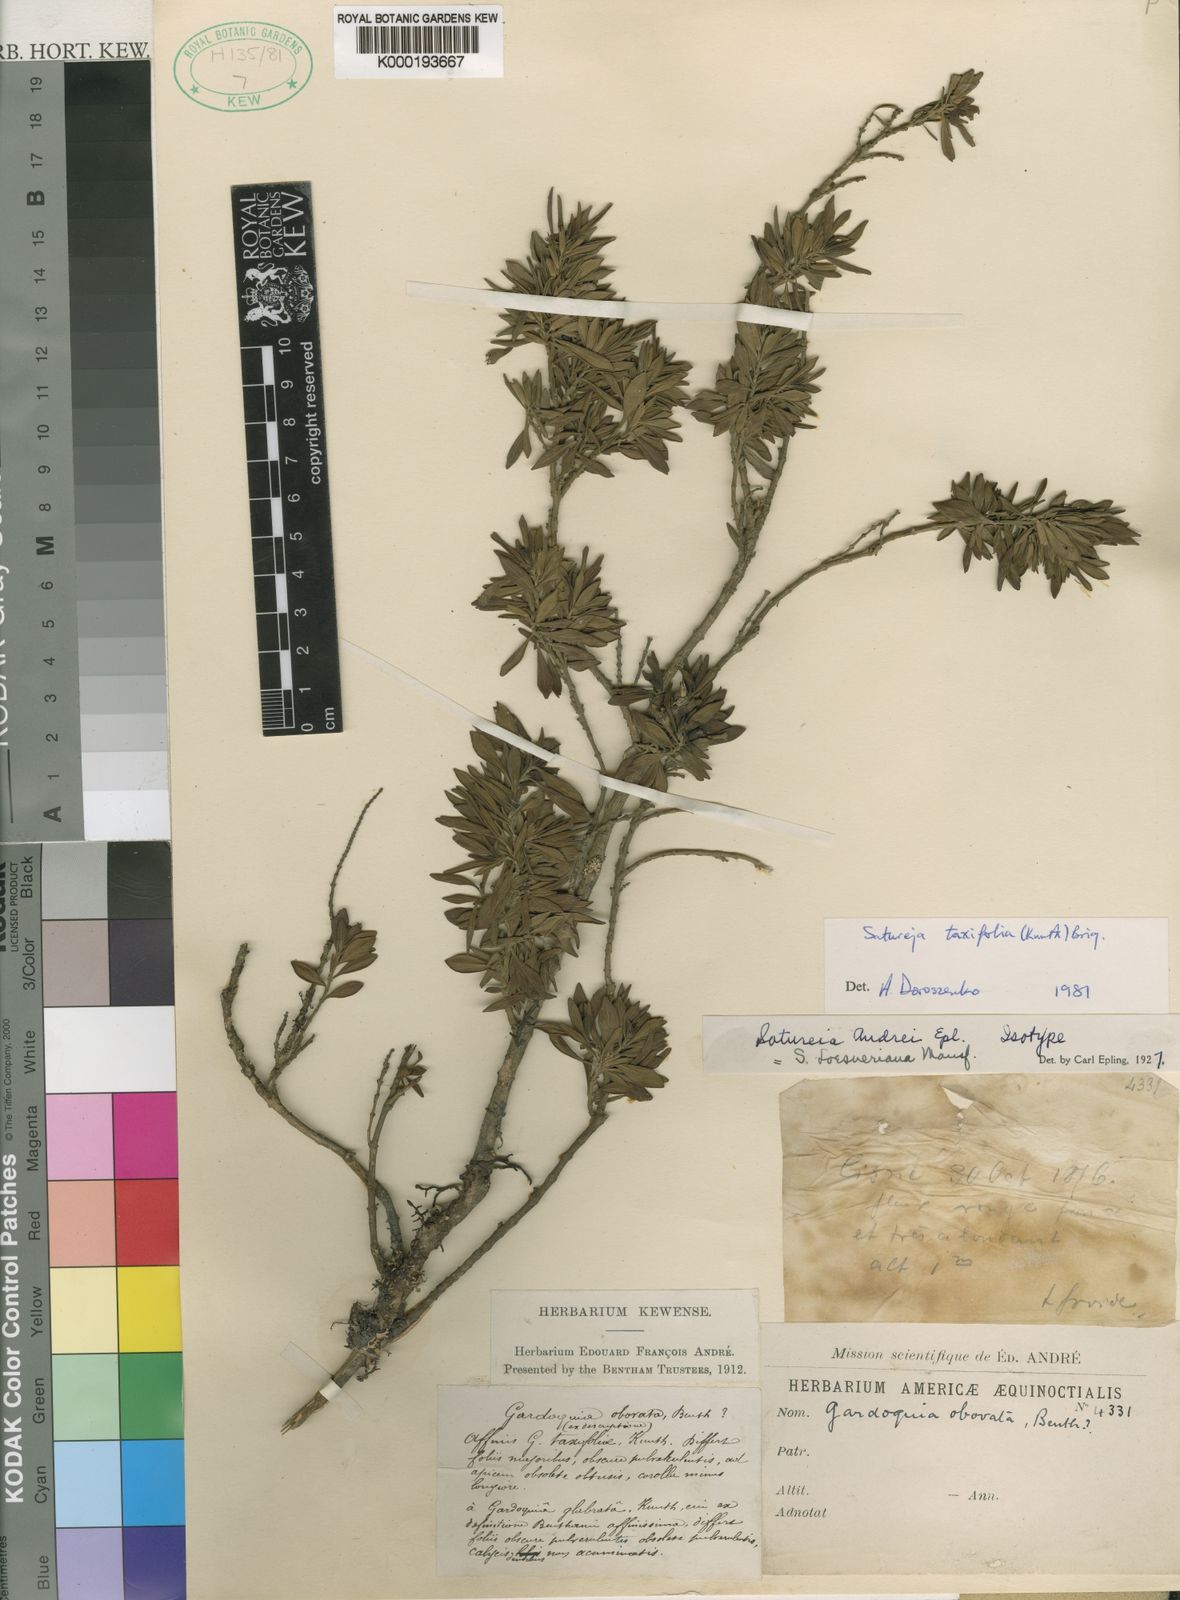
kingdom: Plantae
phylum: Tracheophyta
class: Magnoliopsida
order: Lamiales
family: Lamiaceae
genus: Clinopodium
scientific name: Clinopodium
